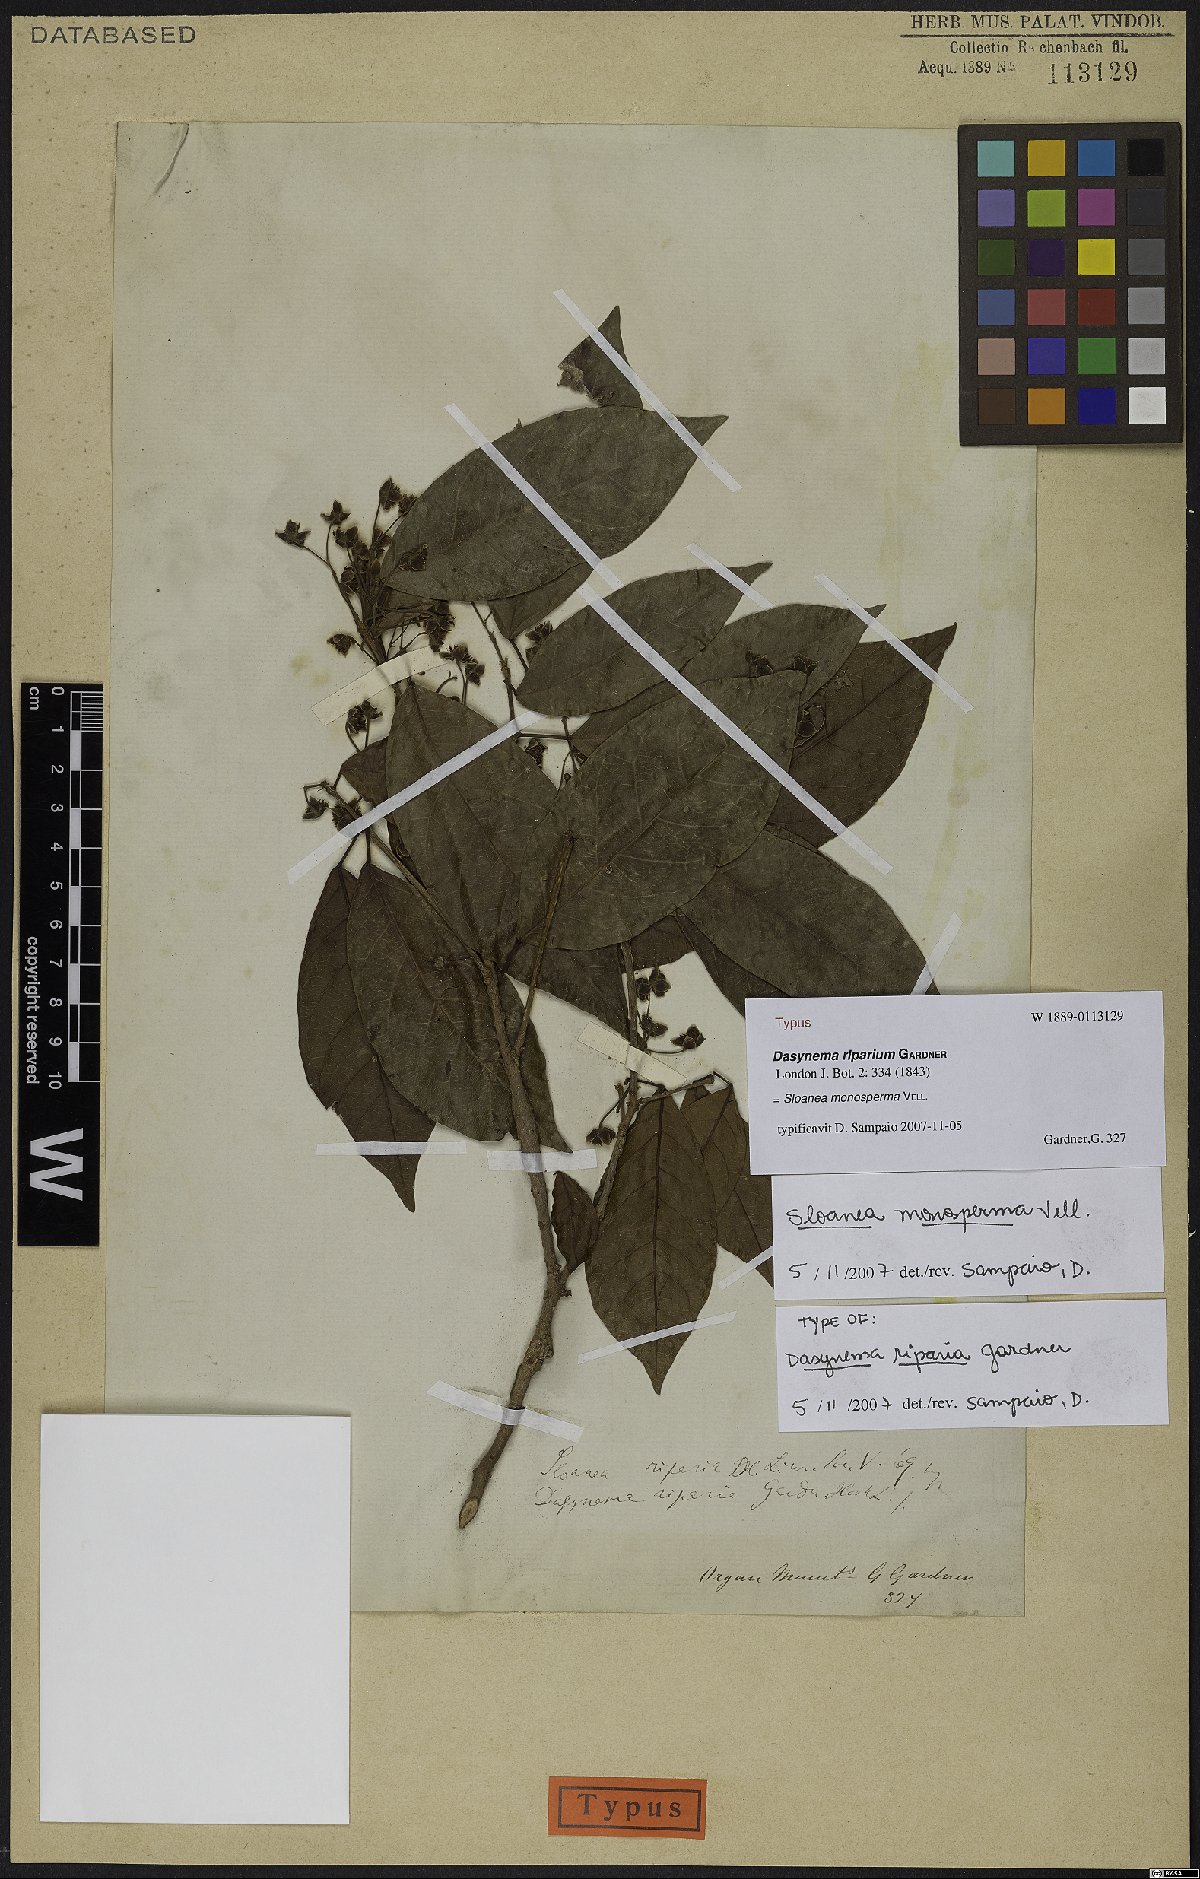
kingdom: Plantae
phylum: Tracheophyta
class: Magnoliopsida
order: Oxalidales
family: Elaeocarpaceae
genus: Sloanea
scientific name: Sloanea hirsuta
